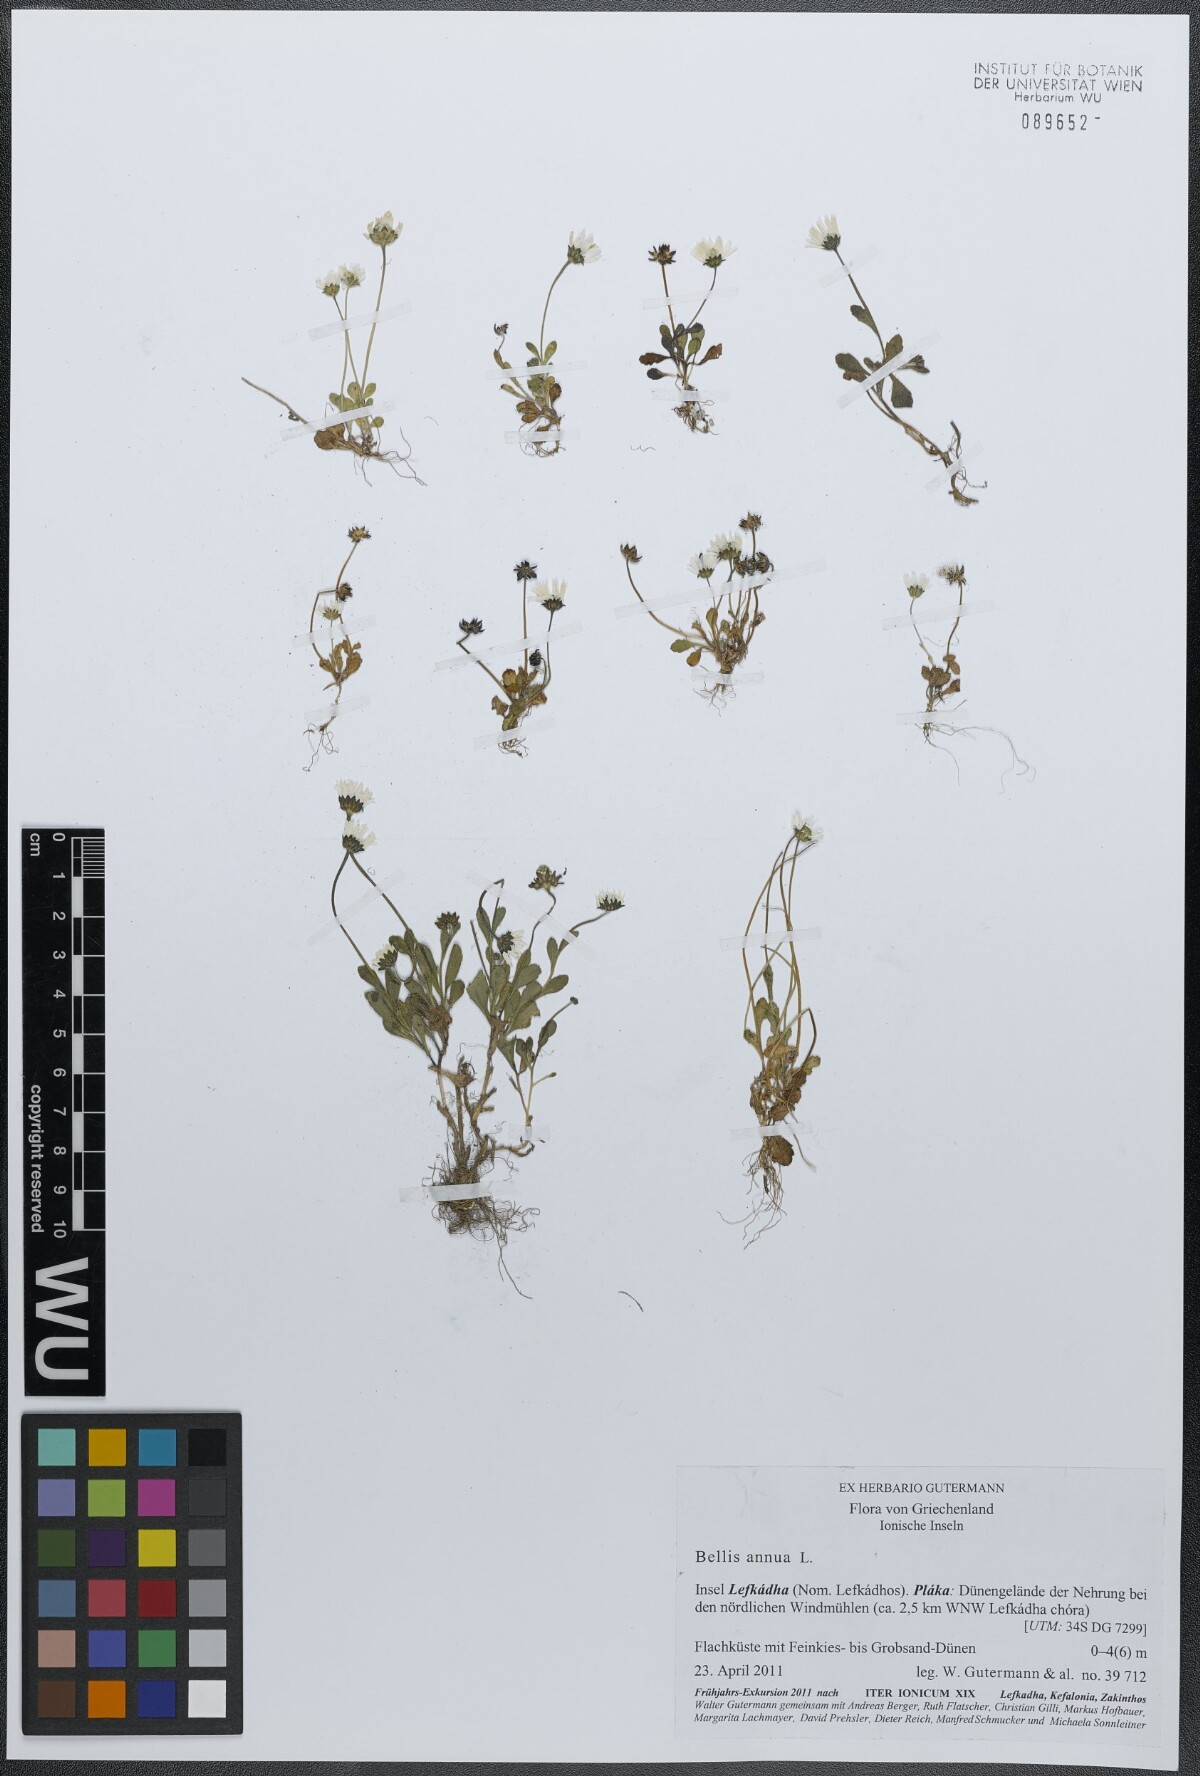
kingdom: Plantae
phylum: Tracheophyta
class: Magnoliopsida
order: Asterales
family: Asteraceae
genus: Bellis
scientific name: Bellis annua
